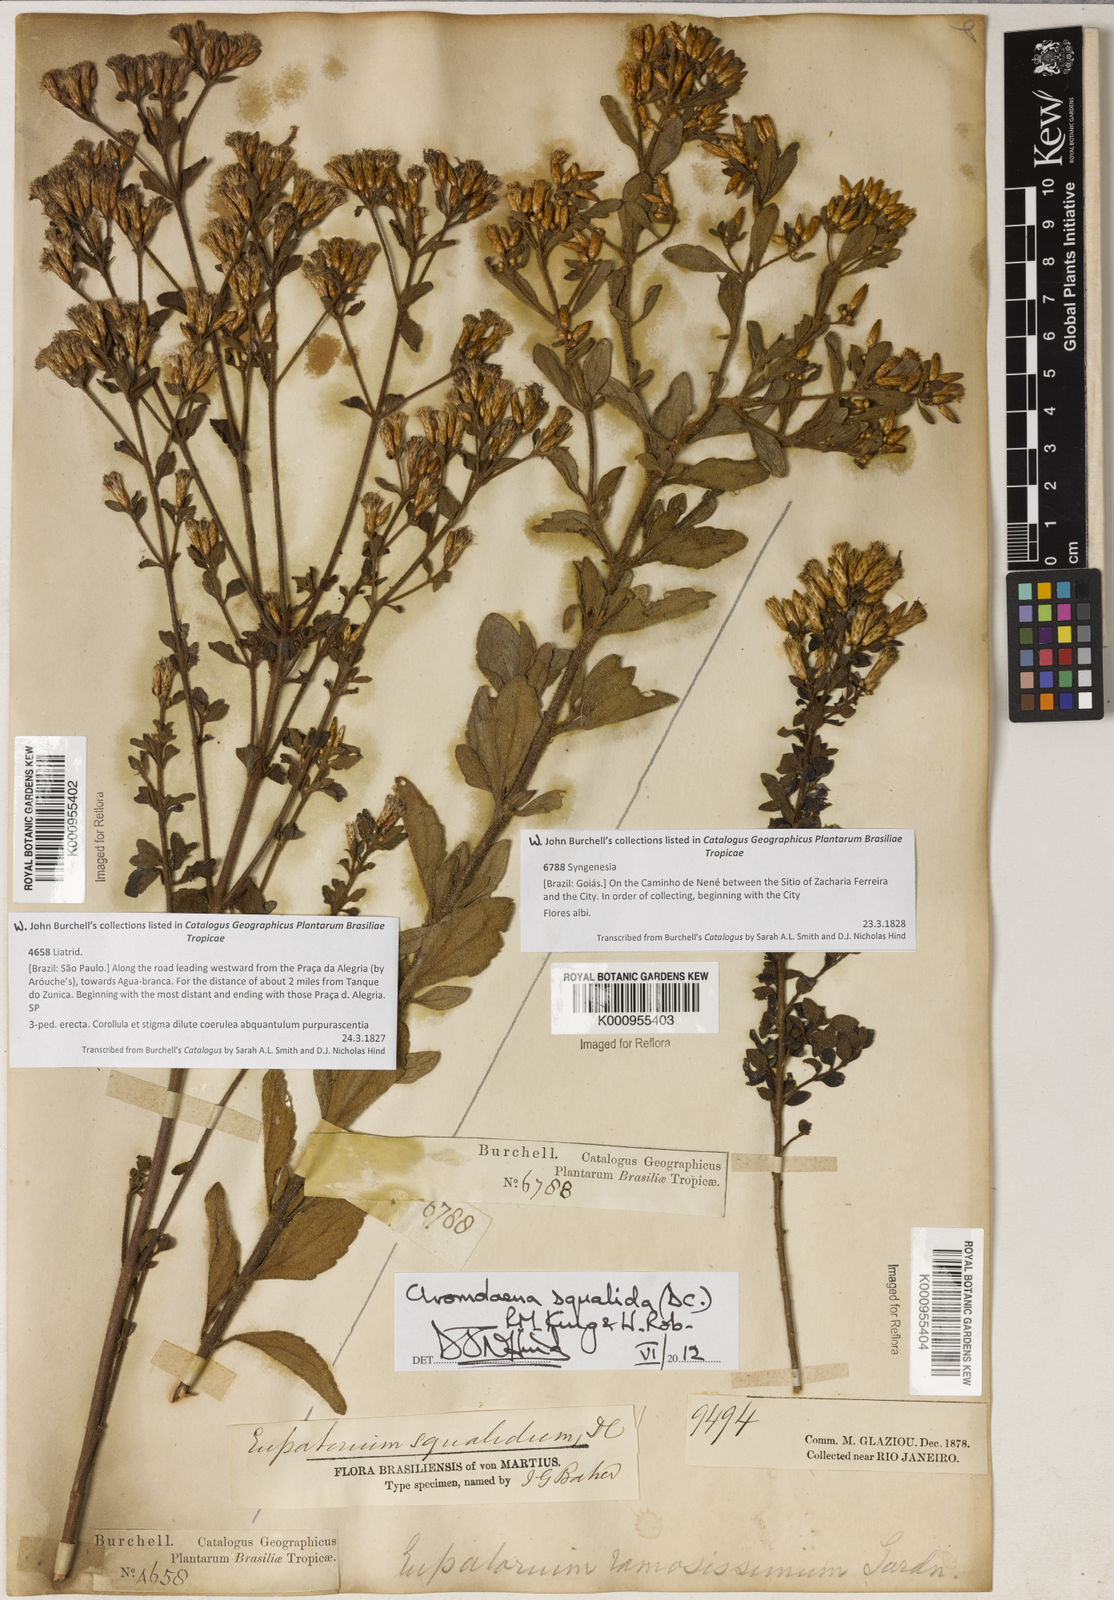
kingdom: Plantae
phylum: Tracheophyta
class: Magnoliopsida
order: Asterales
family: Asteraceae
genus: Chromolaena
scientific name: Chromolaena squalida
